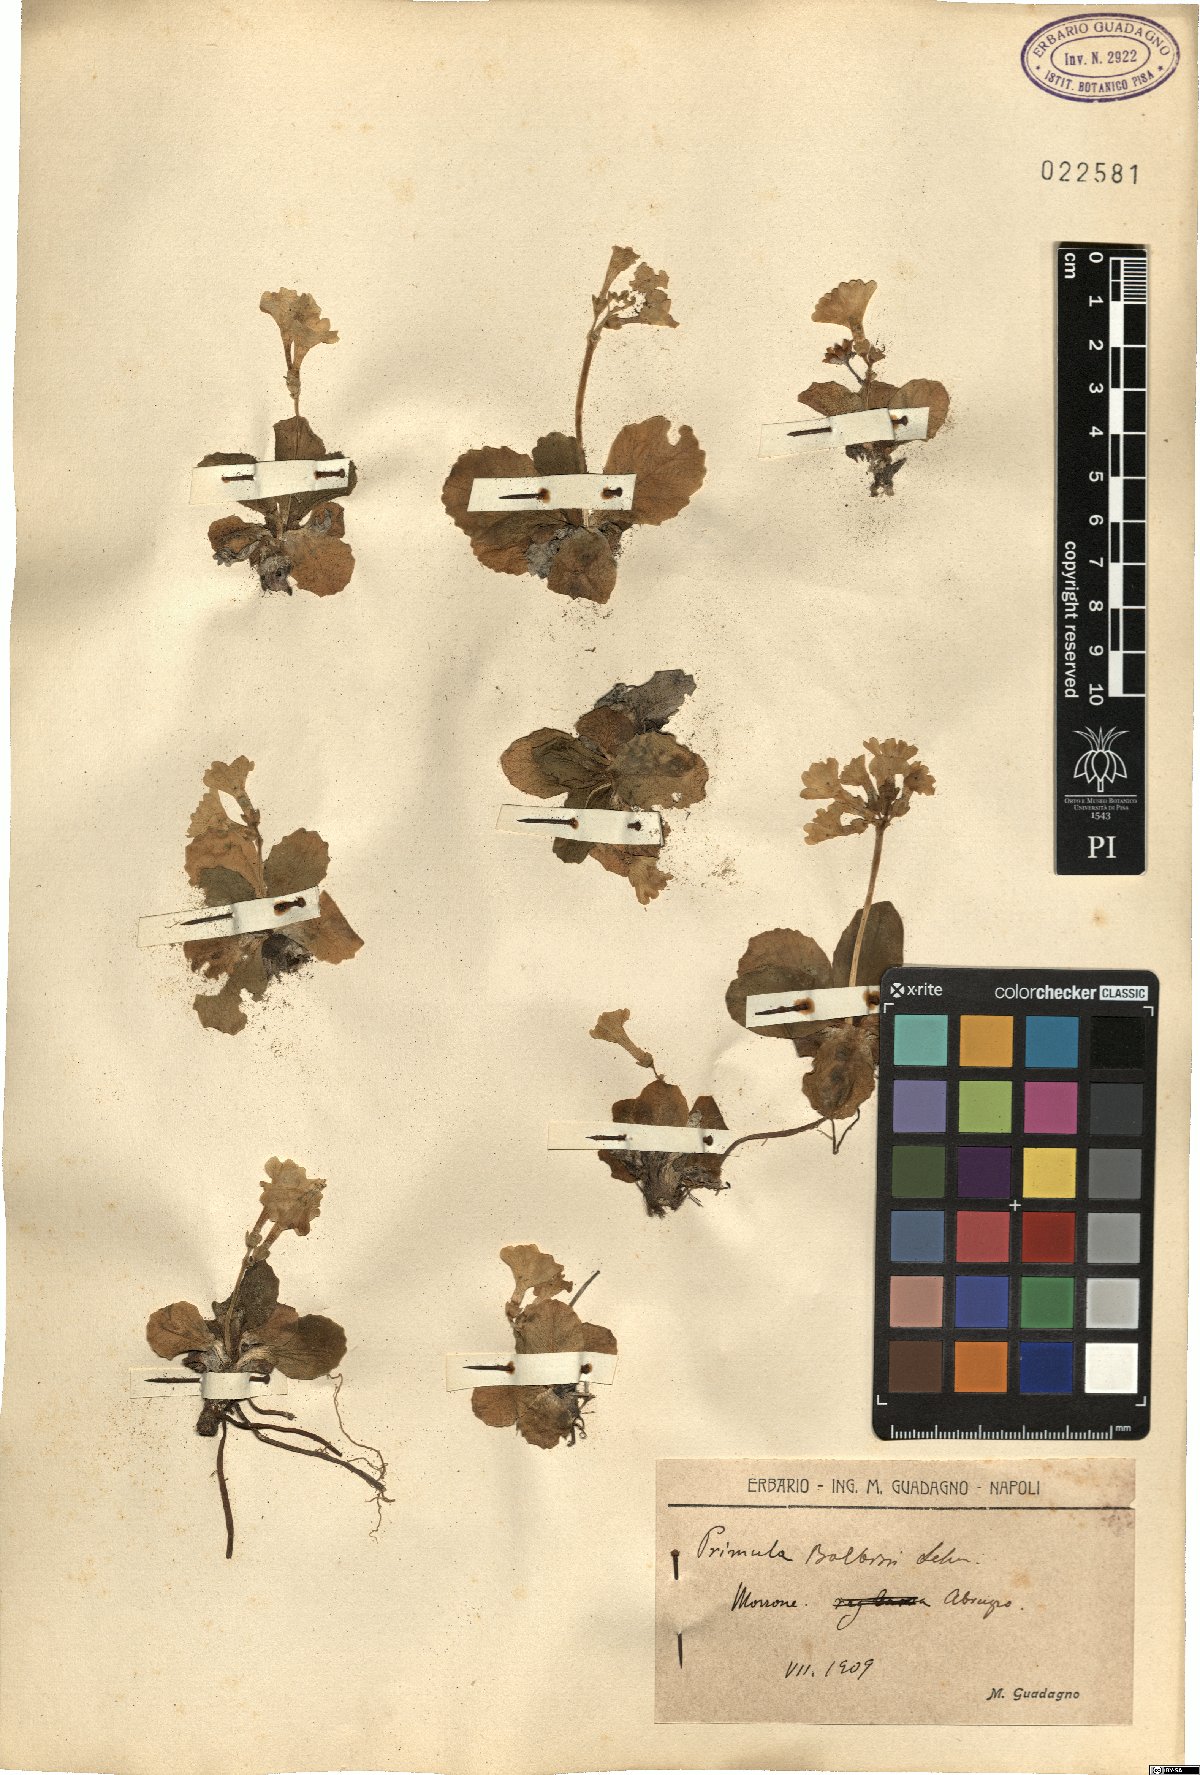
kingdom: Plantae
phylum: Tracheophyta
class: Magnoliopsida
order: Ericales
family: Primulaceae
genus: Primula
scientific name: Primula auricula
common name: Auricula
